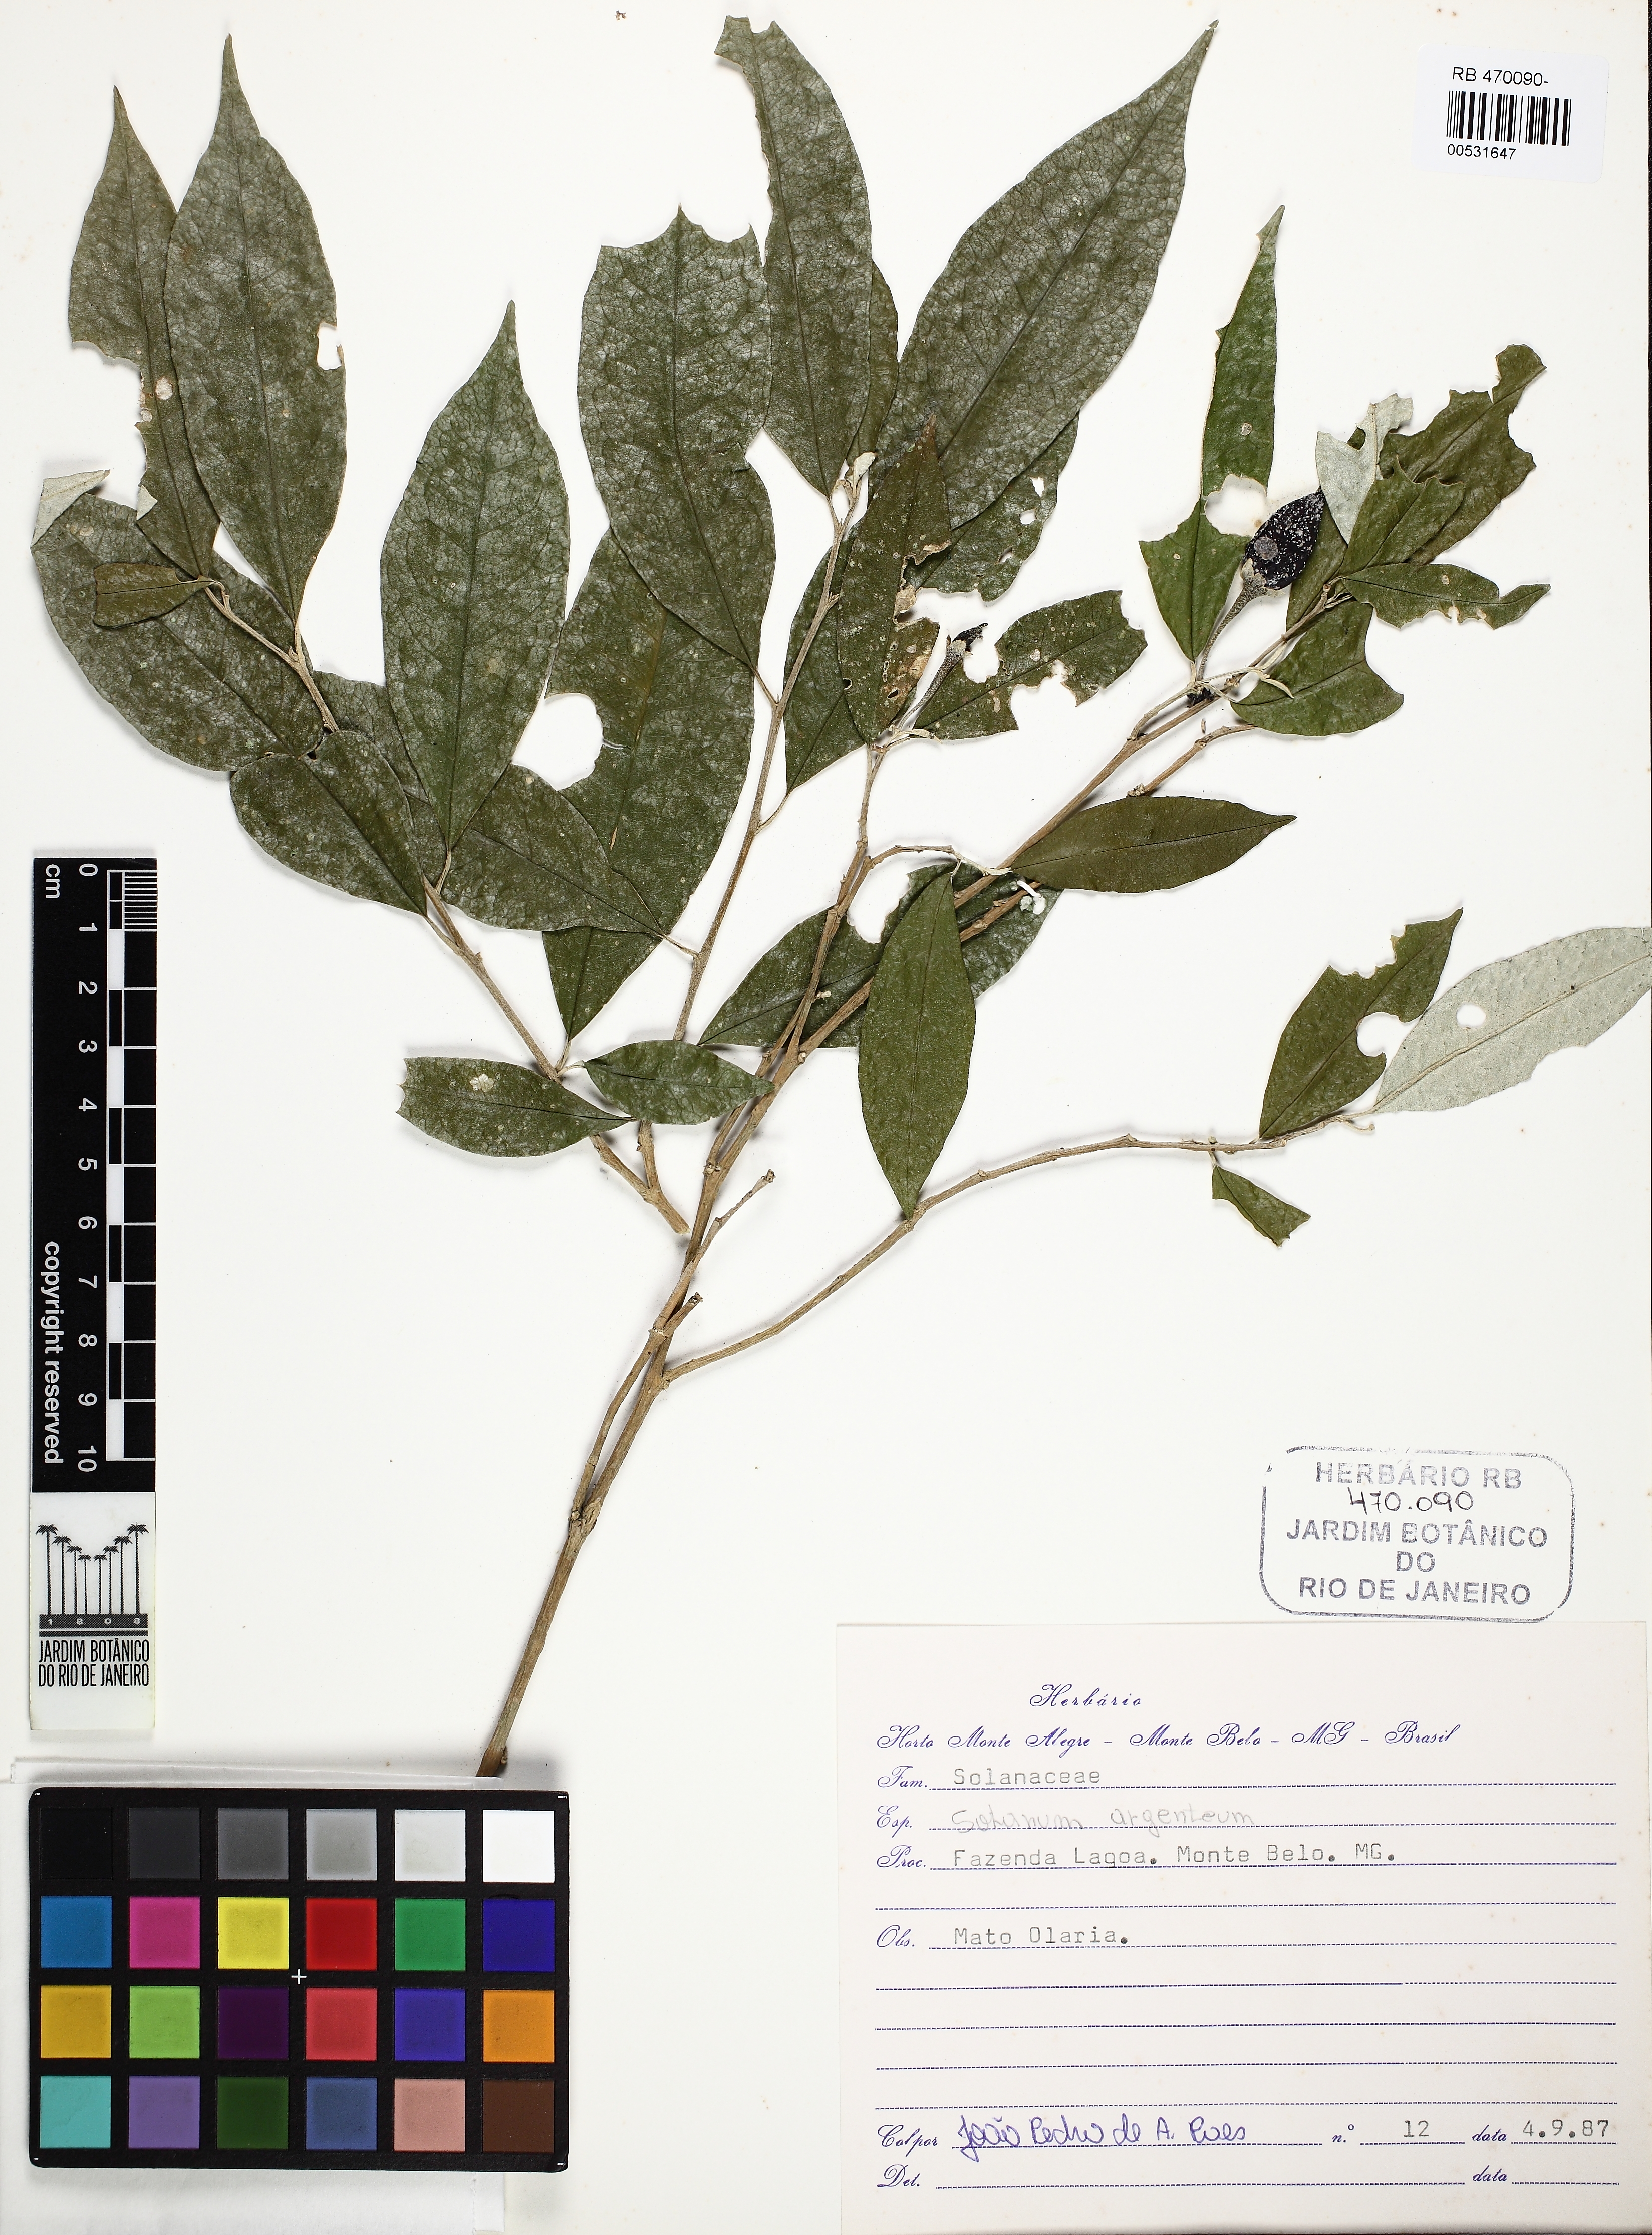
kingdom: Plantae
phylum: Tracheophyta
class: Magnoliopsida
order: Solanales
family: Solanaceae
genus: Solanum
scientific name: Solanum swartzianum
